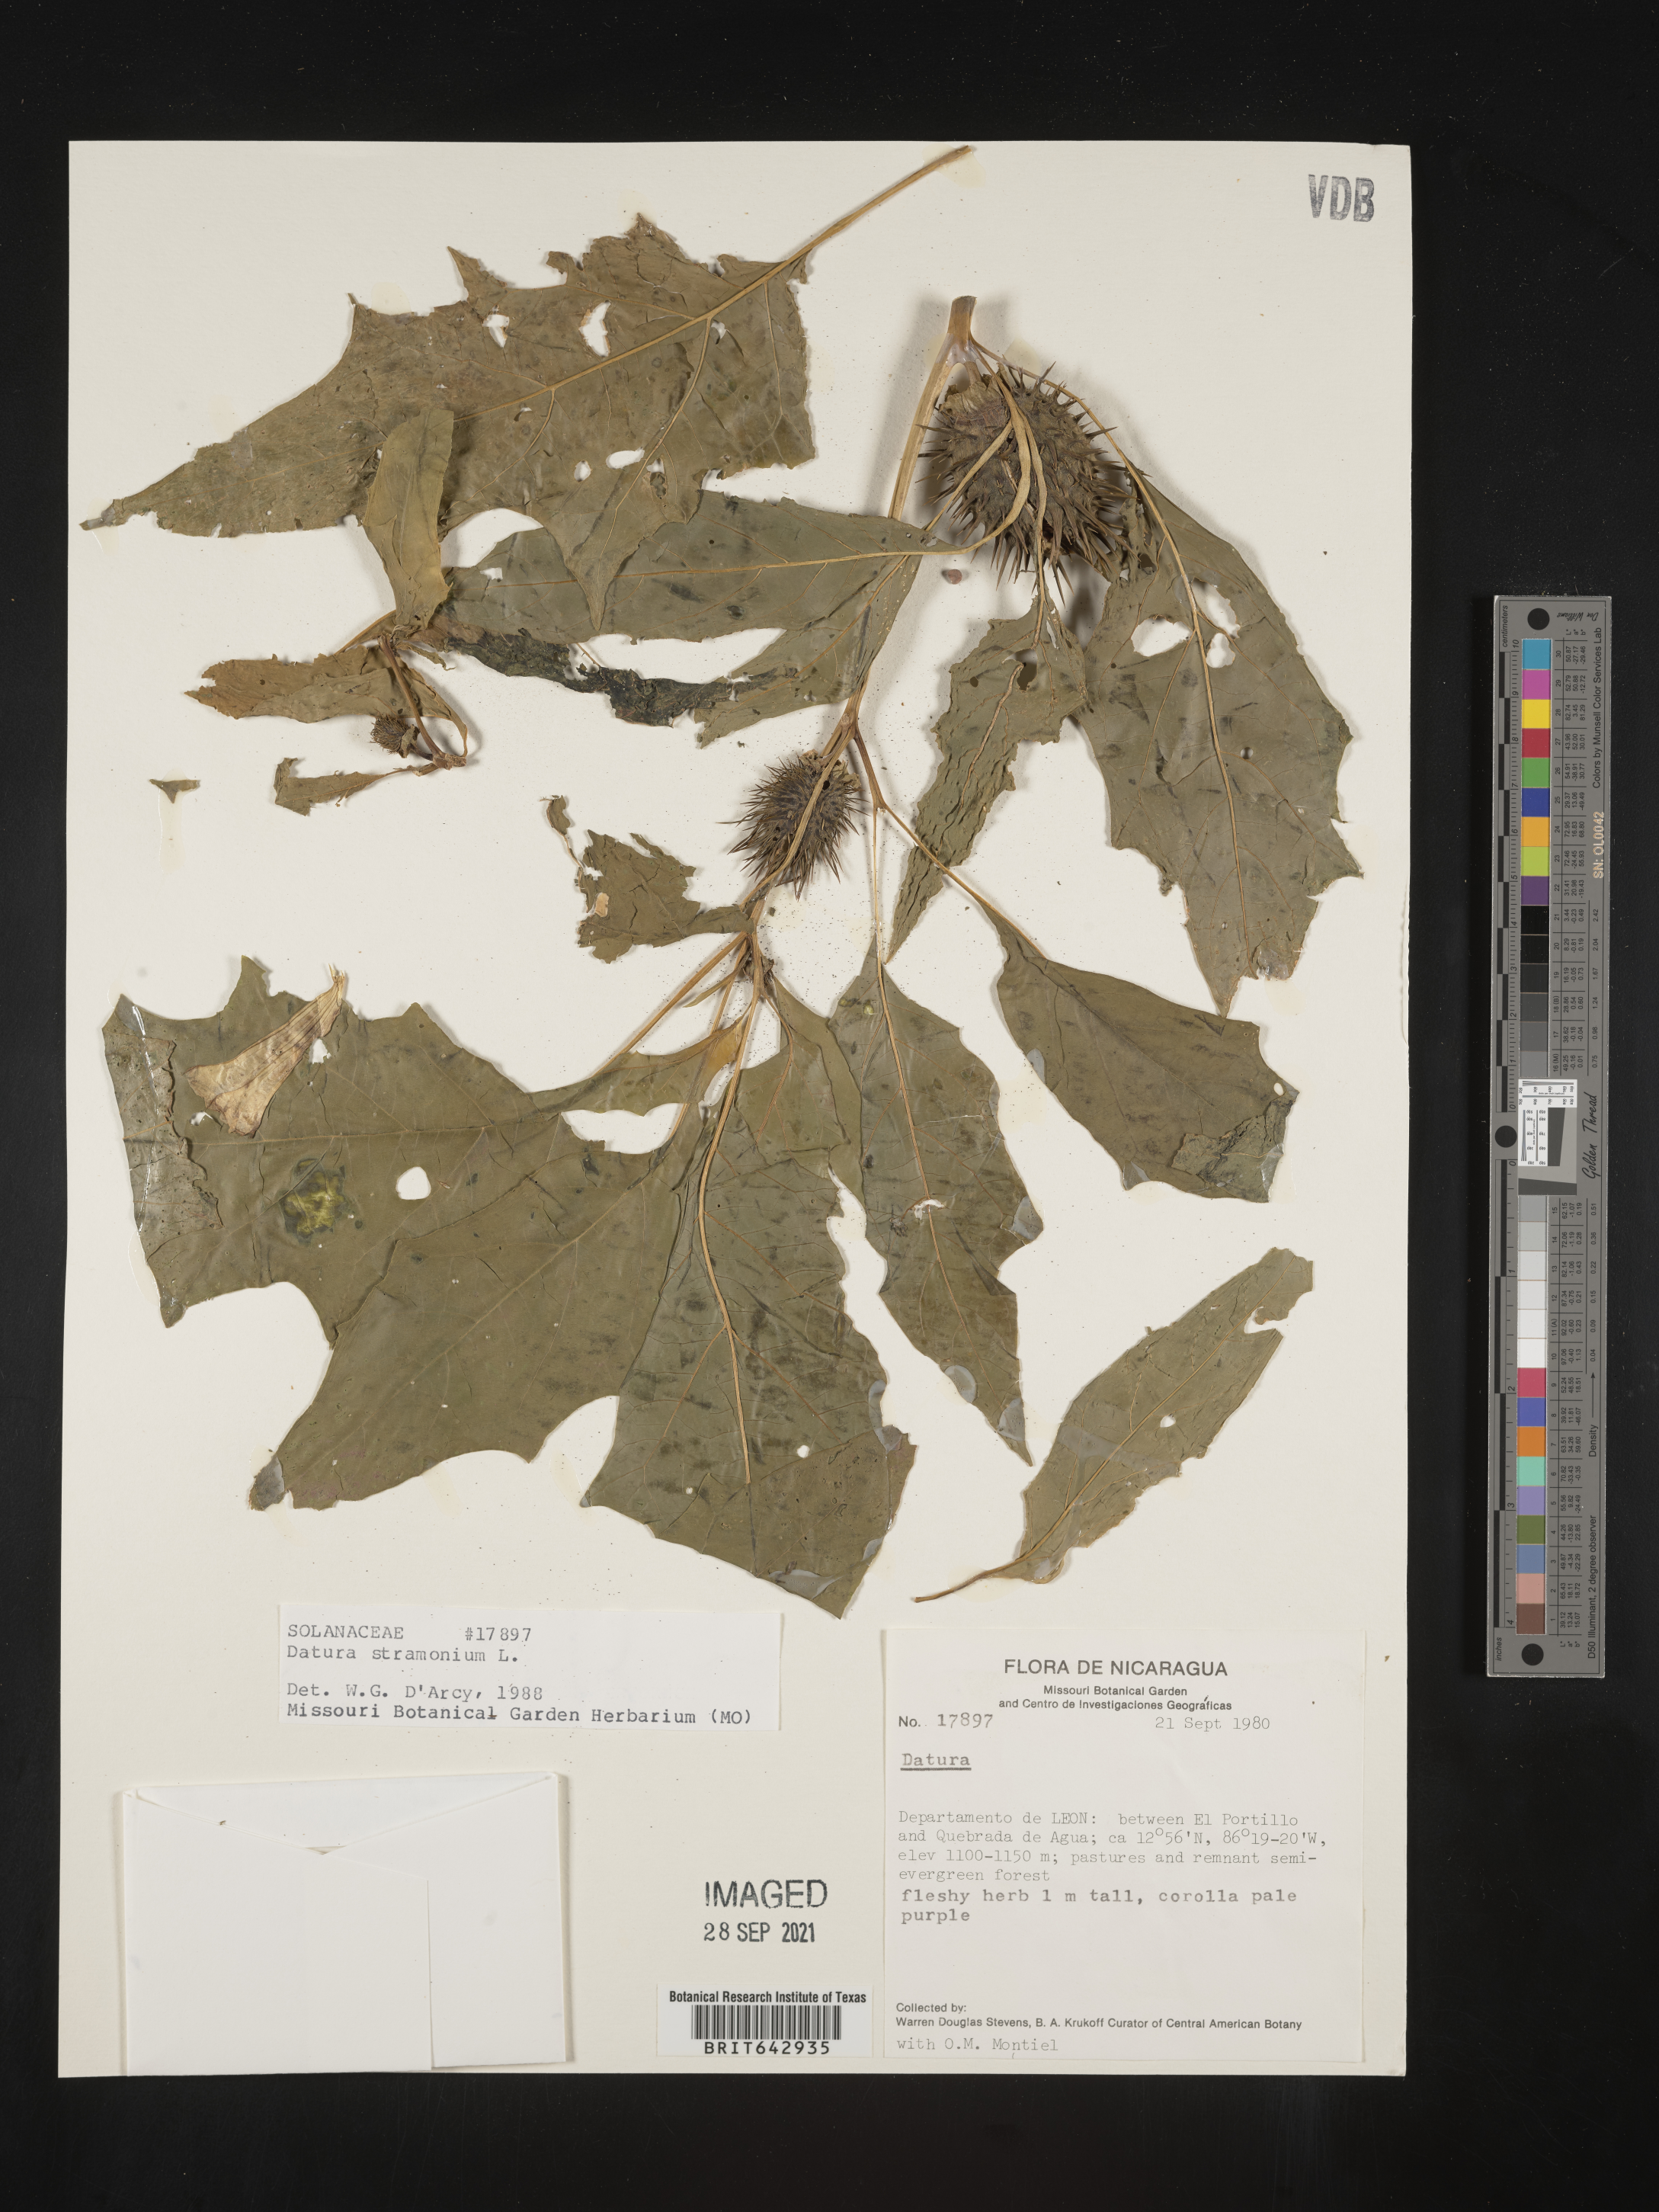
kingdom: Plantae
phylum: Tracheophyta
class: Magnoliopsida
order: Solanales
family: Solanaceae
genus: Datura
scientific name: Datura
